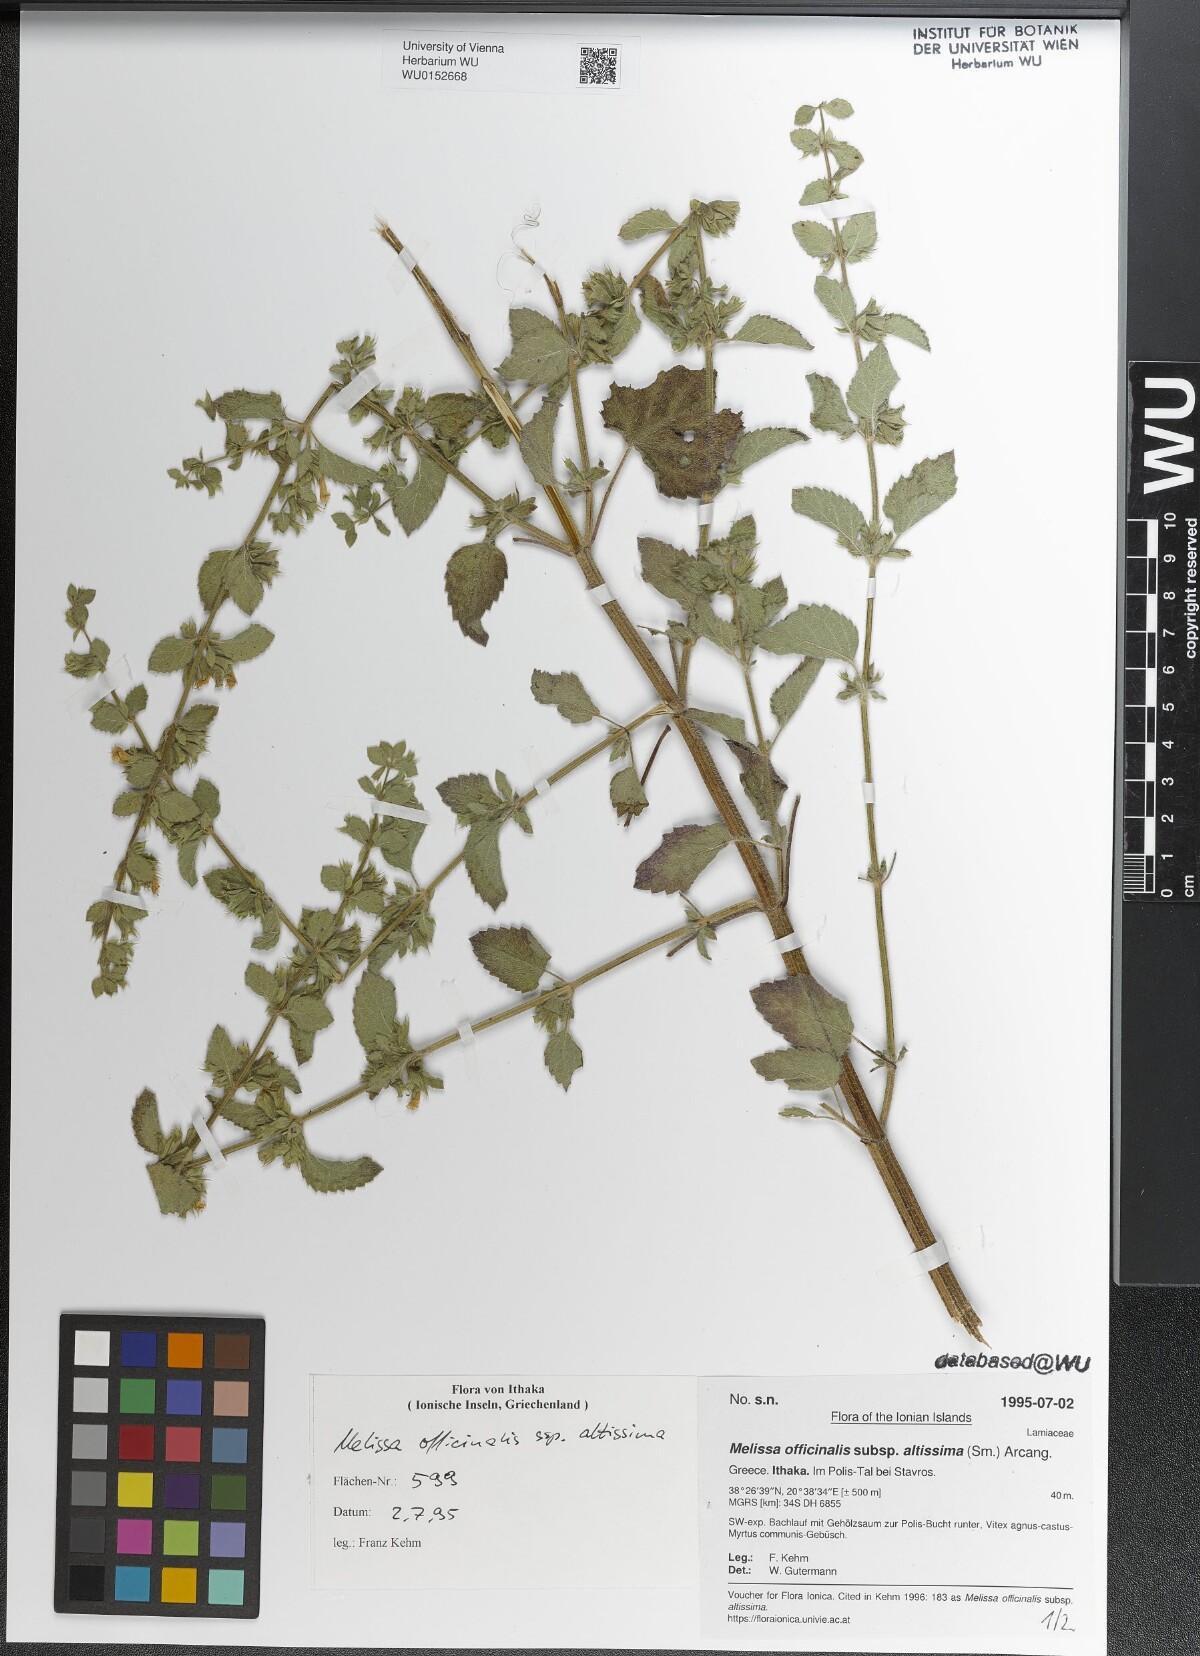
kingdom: Plantae
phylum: Tracheophyta
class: Magnoliopsida
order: Lamiales
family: Lamiaceae
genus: Melissa
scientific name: Melissa officinalis
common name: Balm
